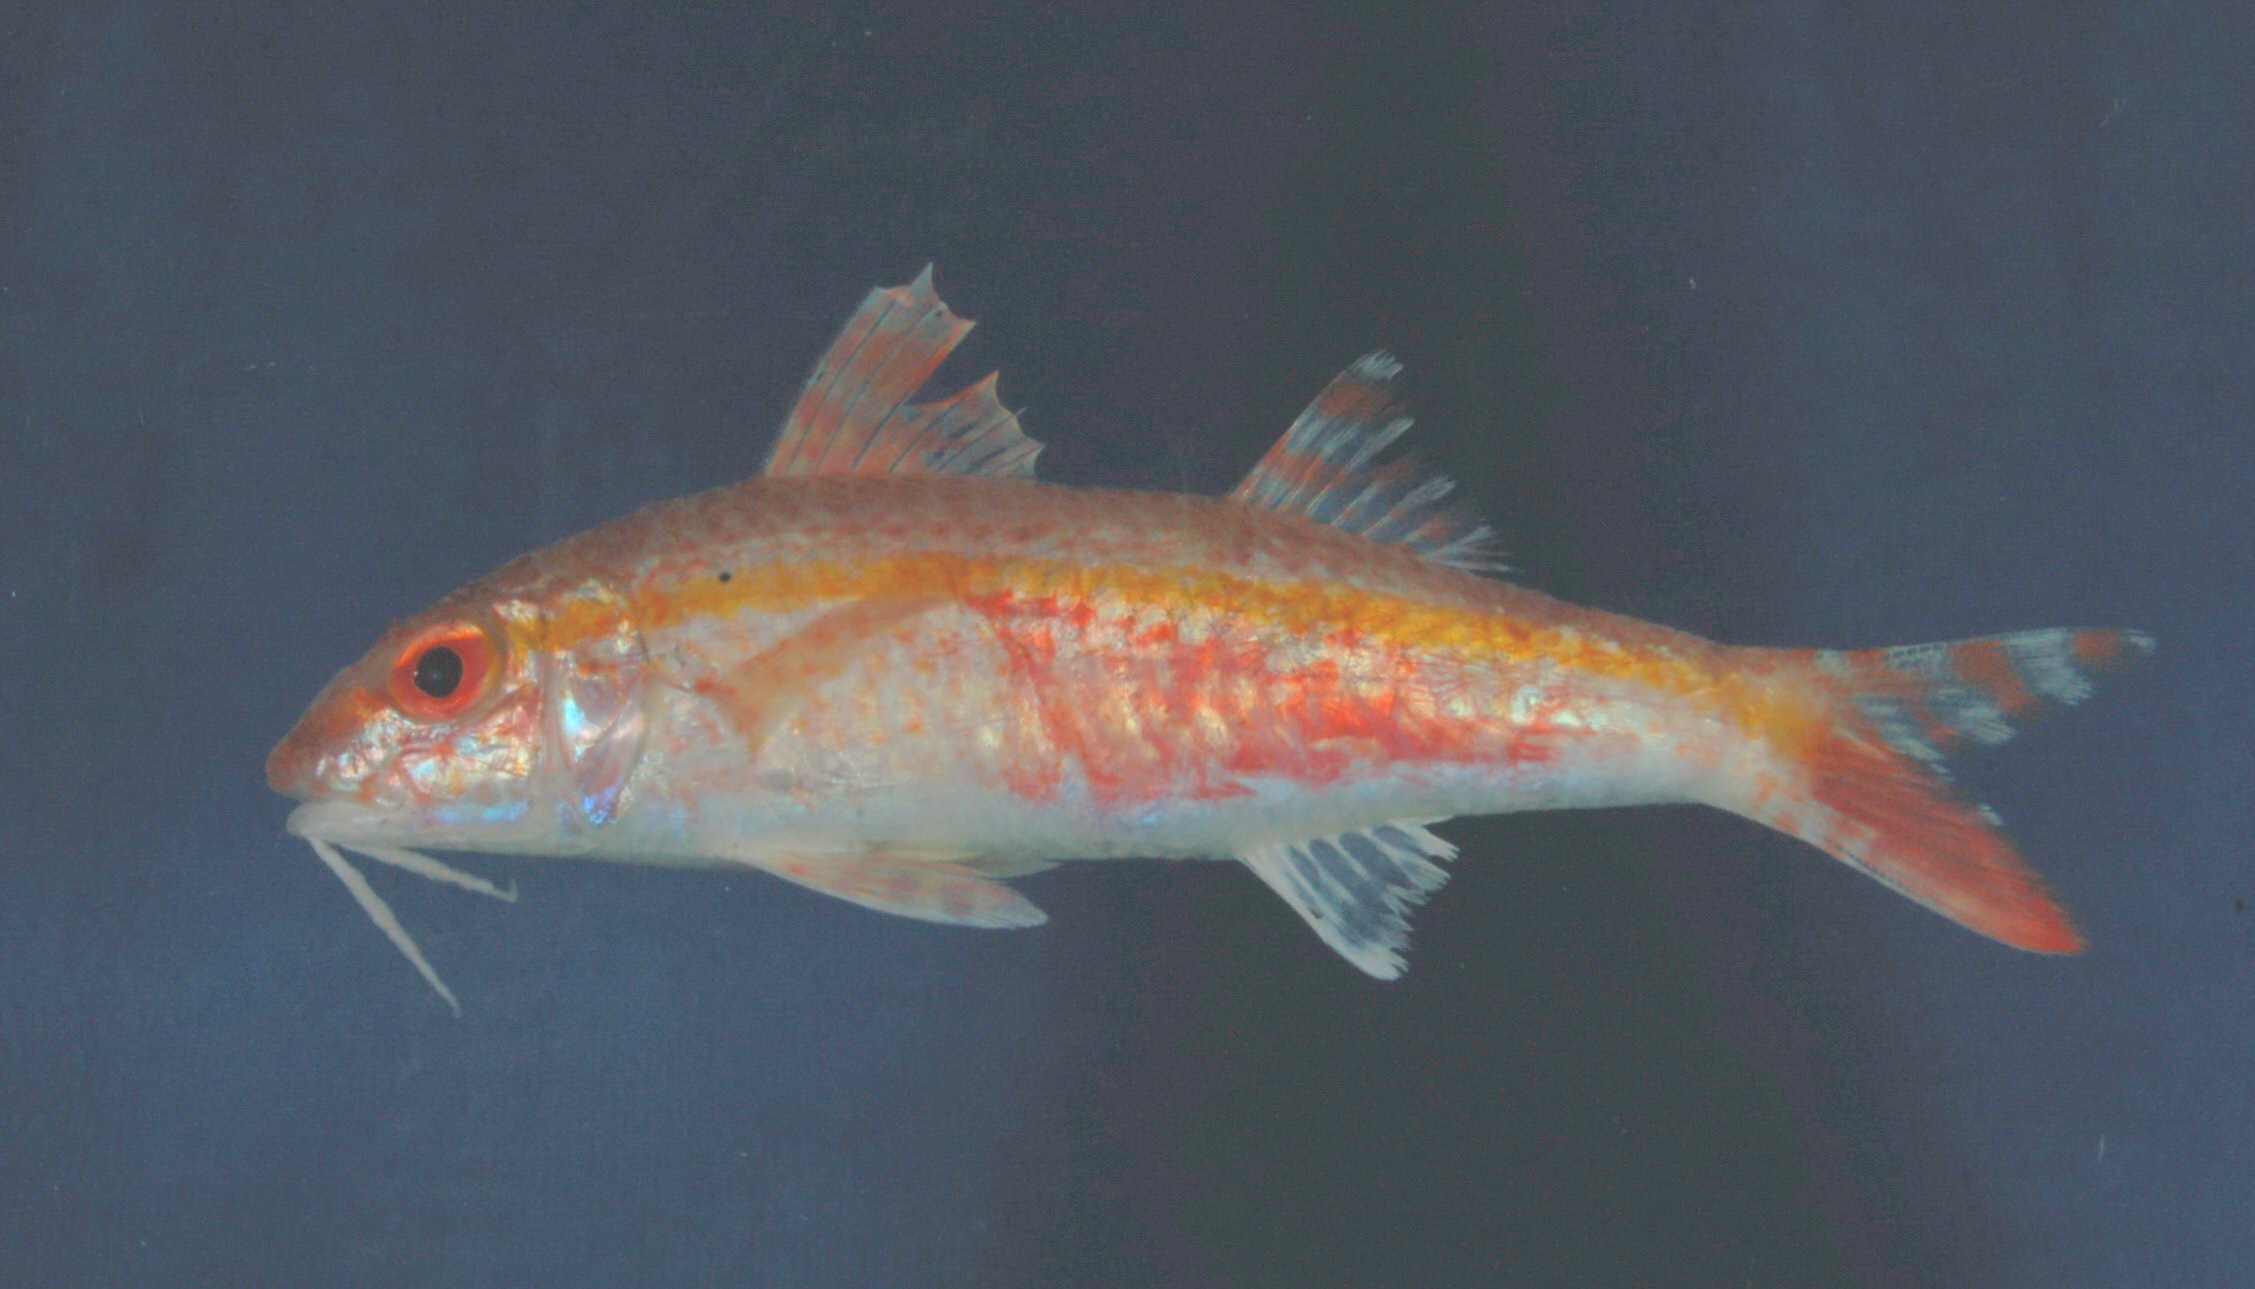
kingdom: Animalia
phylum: Chordata
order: Perciformes
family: Mullidae
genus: Upeneus
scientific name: Upeneus margarethae
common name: Margaretha's goatfish
